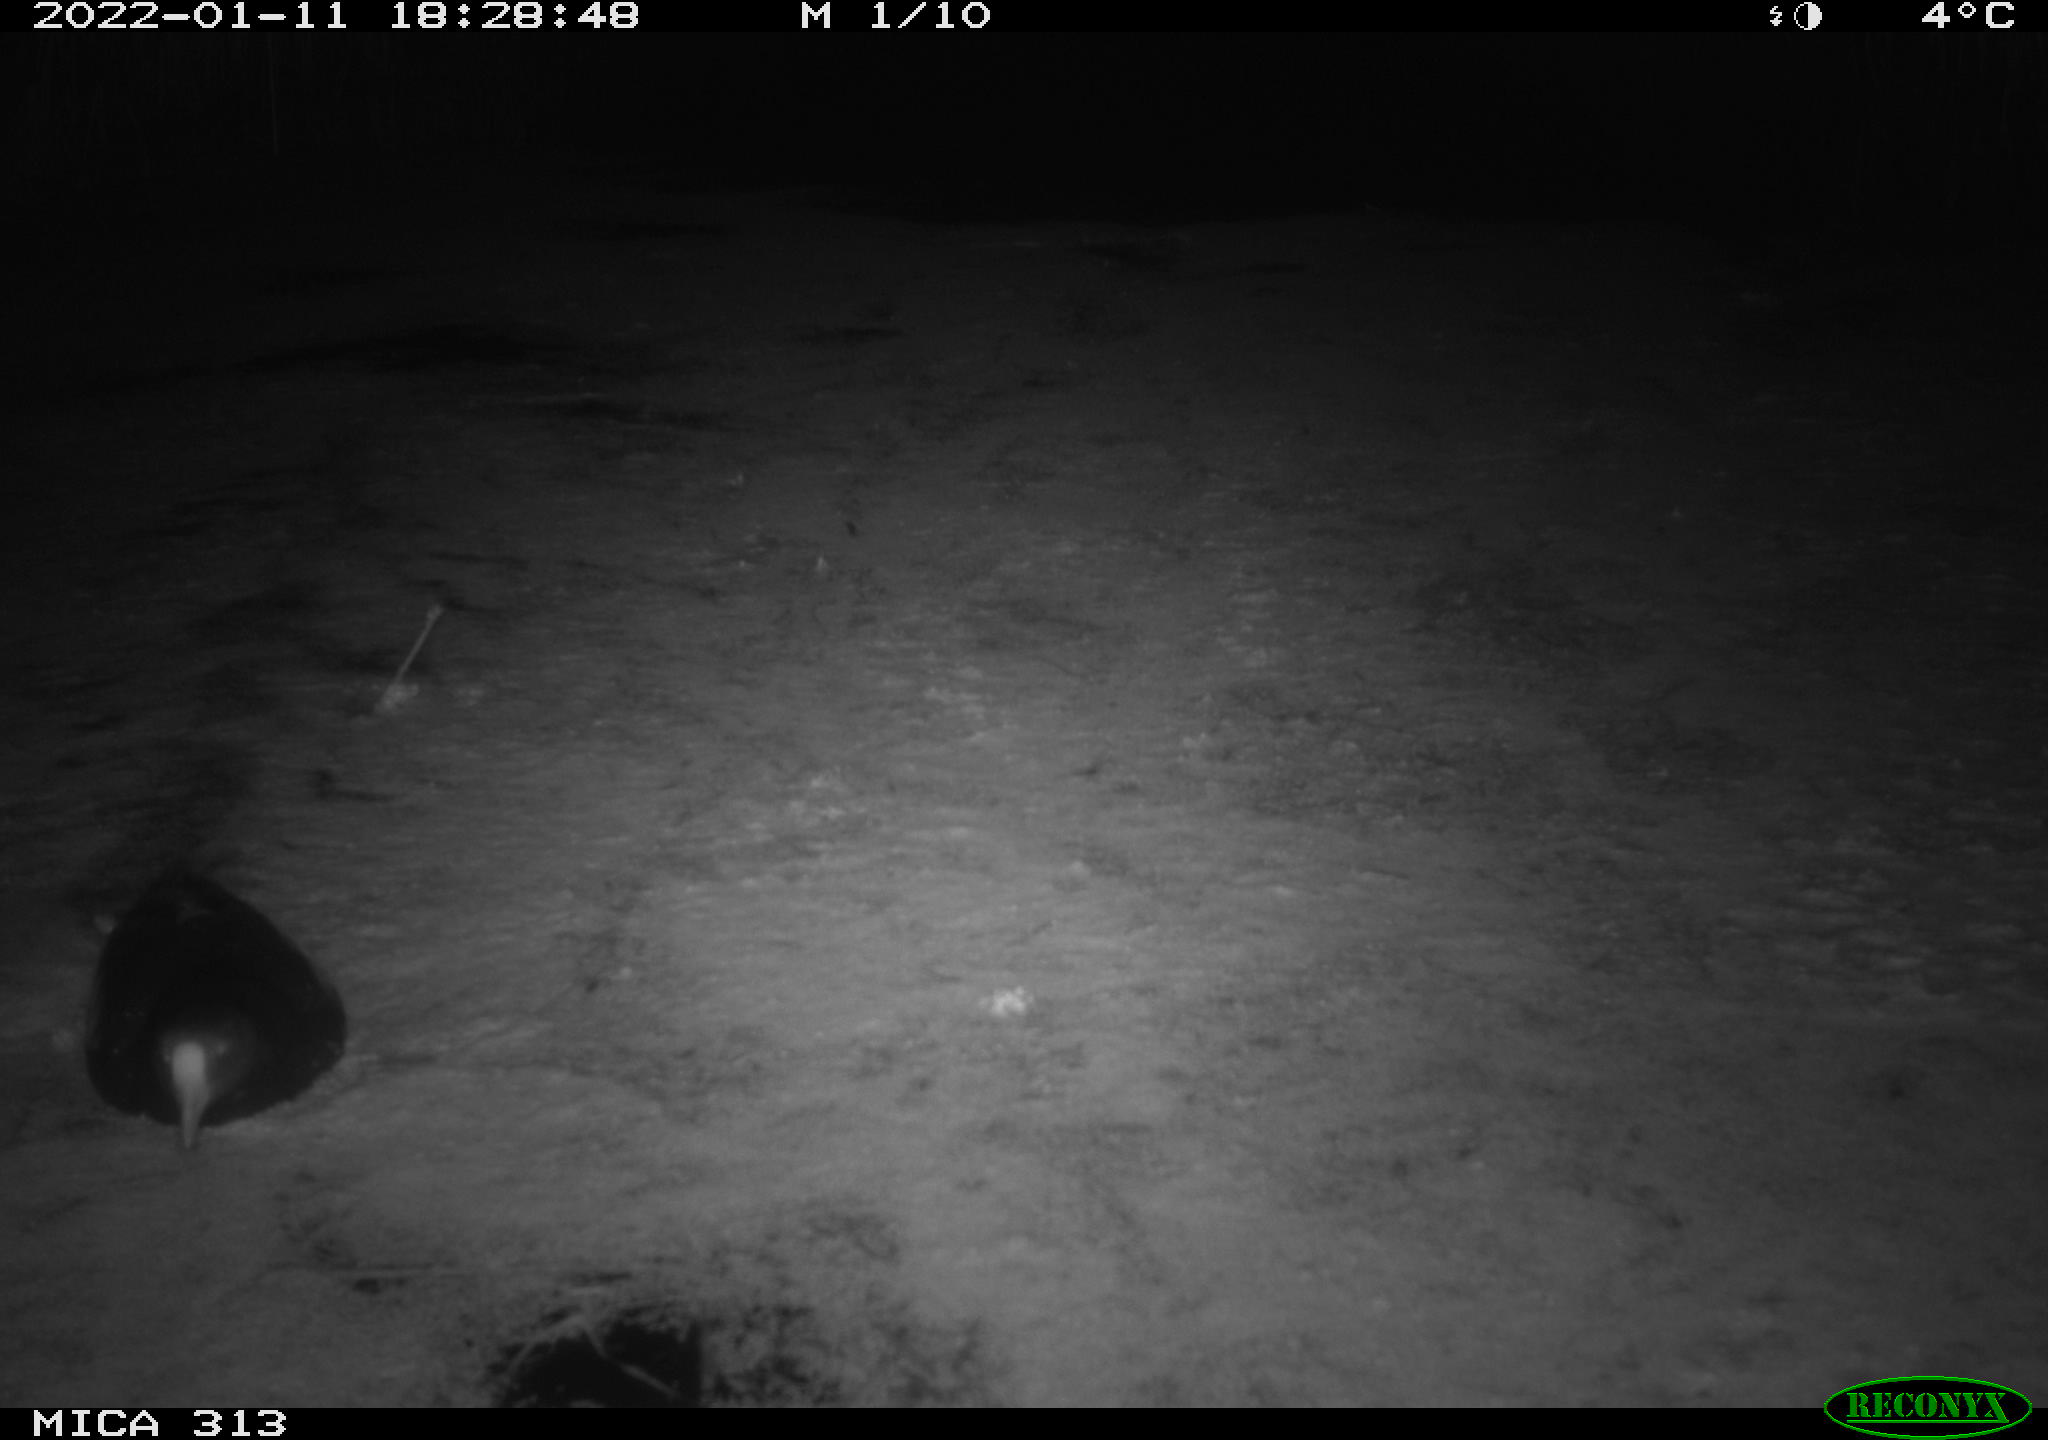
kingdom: Animalia
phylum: Chordata
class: Aves
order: Gruiformes
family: Rallidae
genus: Gallinula
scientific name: Gallinula chloropus
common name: Common moorhen
